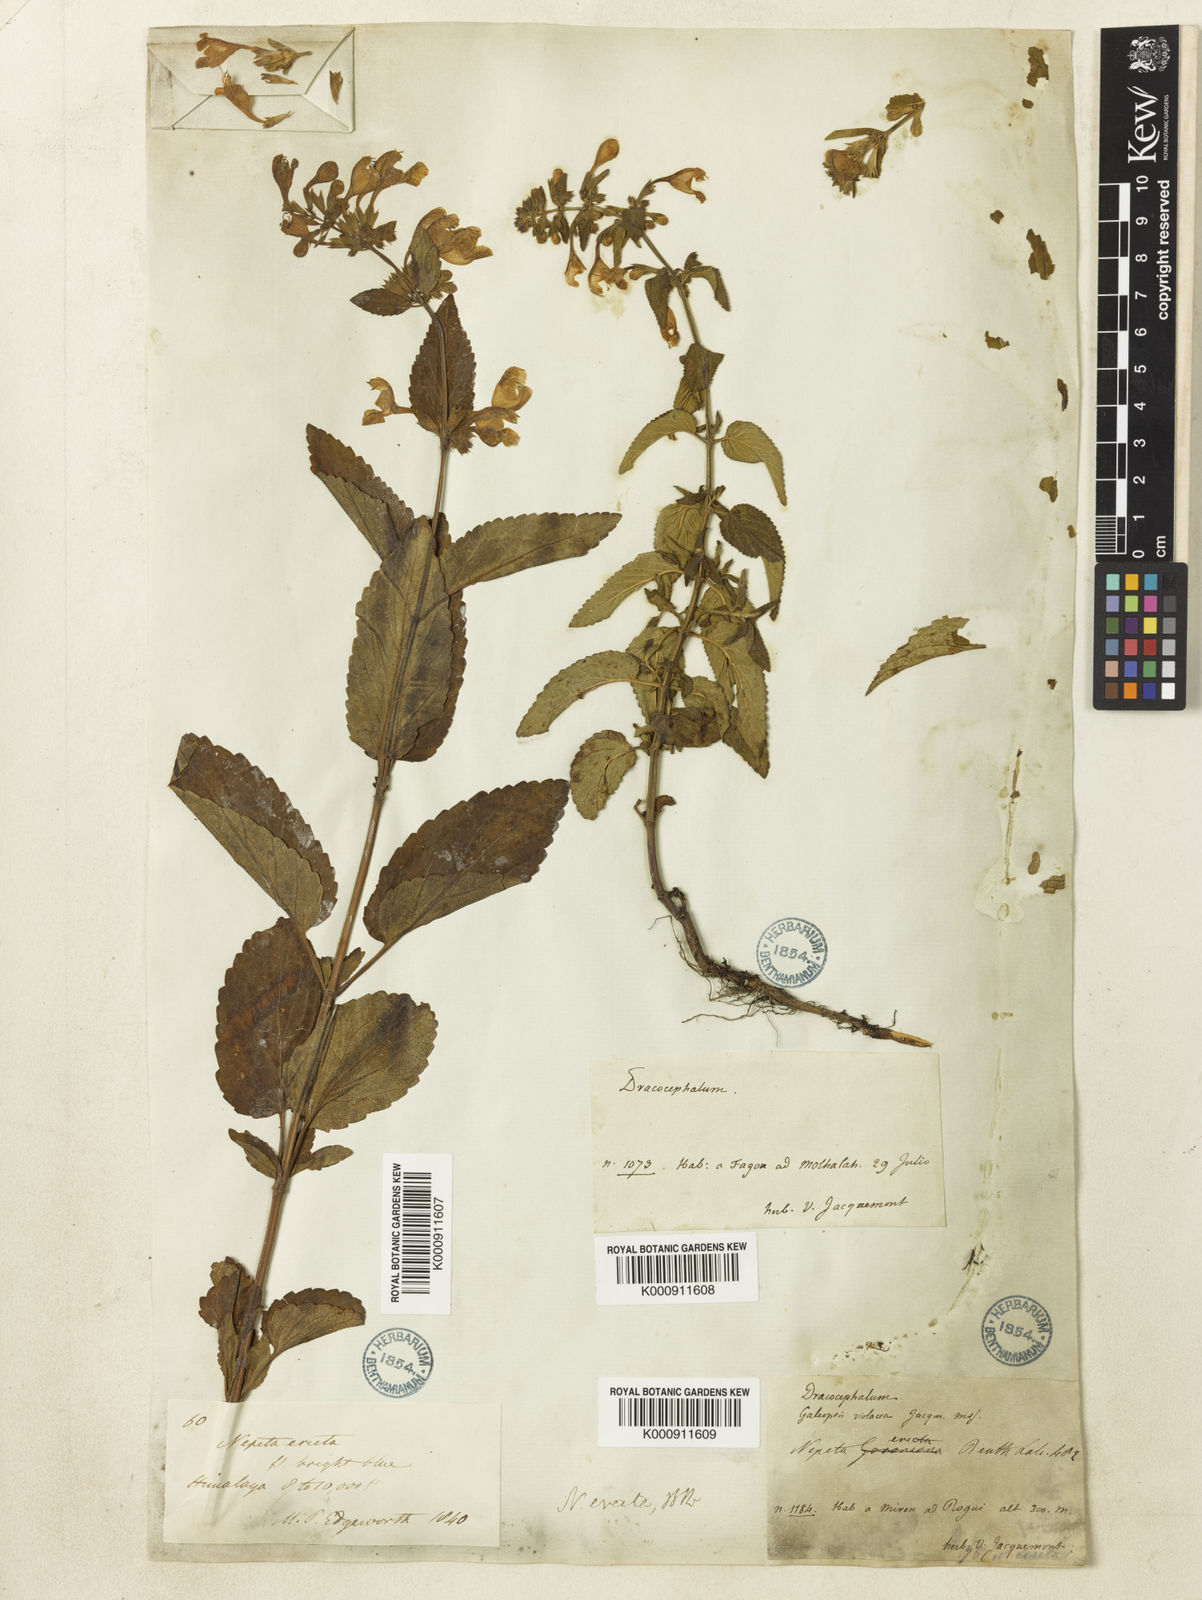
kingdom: Plantae
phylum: Tracheophyta
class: Magnoliopsida
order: Lamiales
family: Lamiaceae
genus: Nepeta
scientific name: Nepeta erecta
